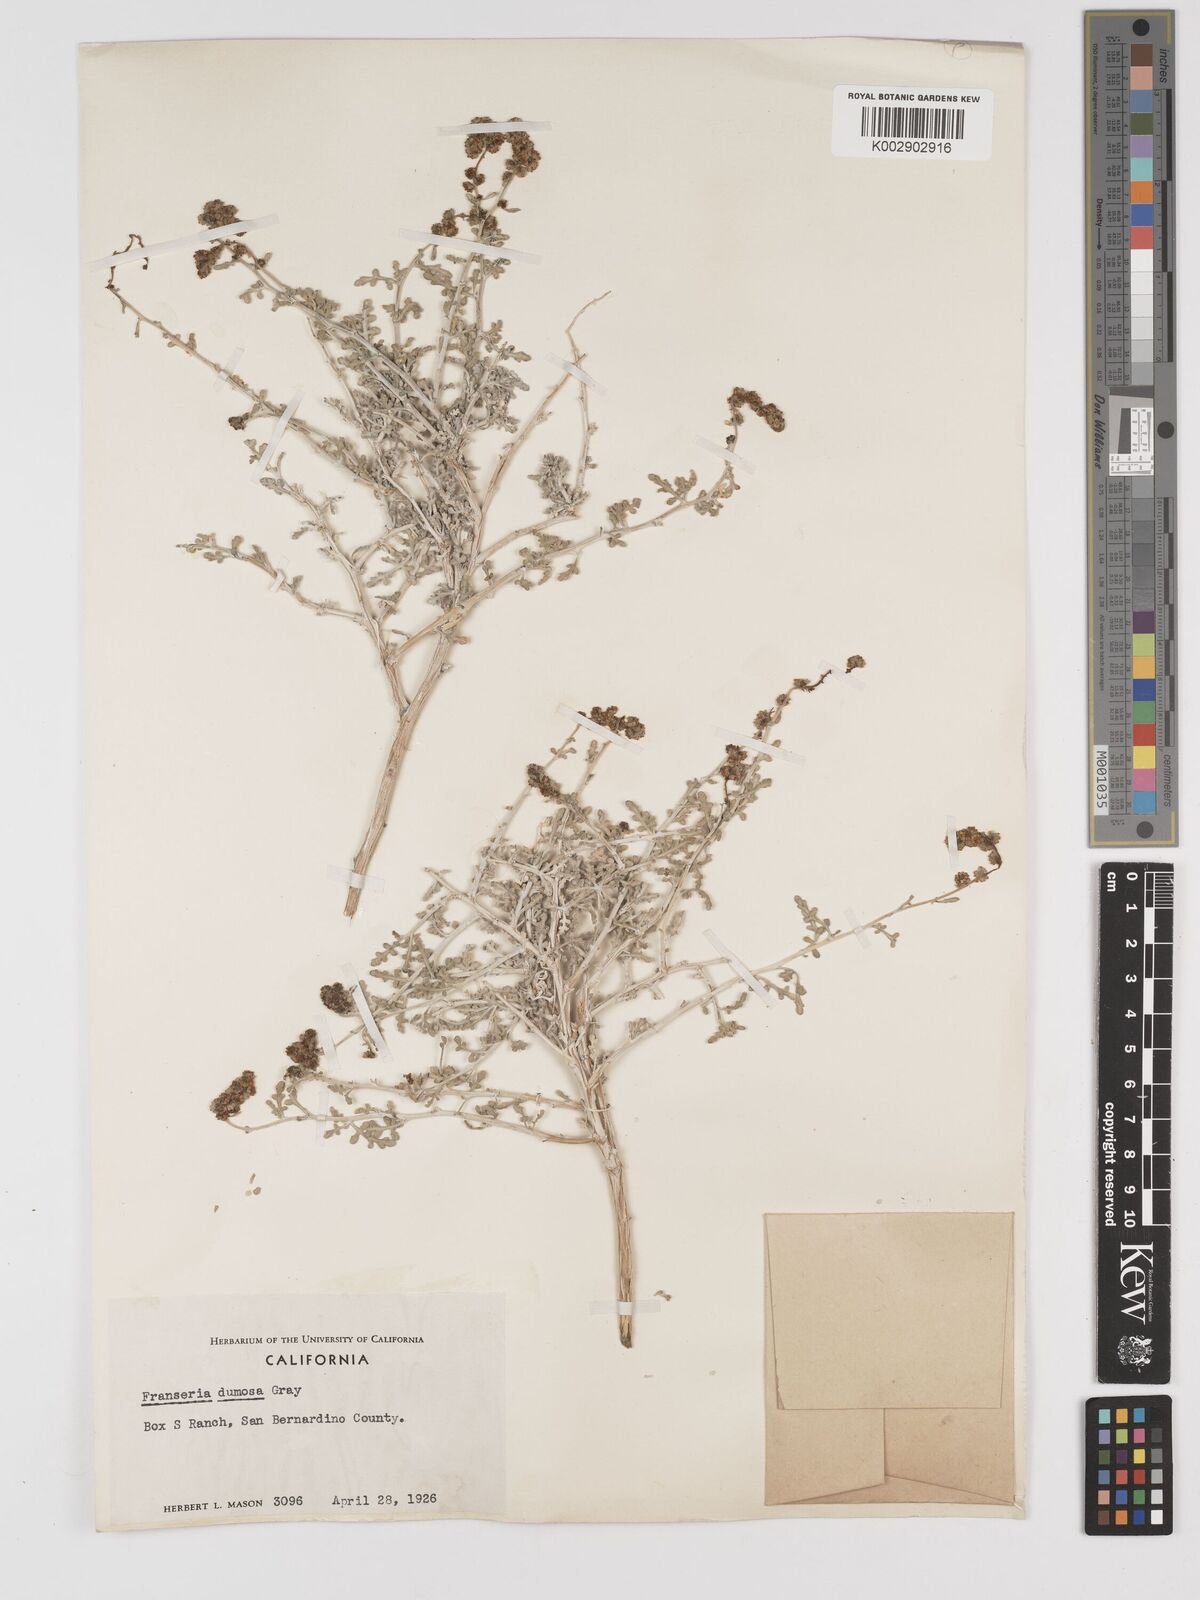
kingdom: Plantae
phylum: Tracheophyta
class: Magnoliopsida
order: Asterales
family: Asteraceae
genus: Ambrosia
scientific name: Ambrosia dumosa
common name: Bur-sage
